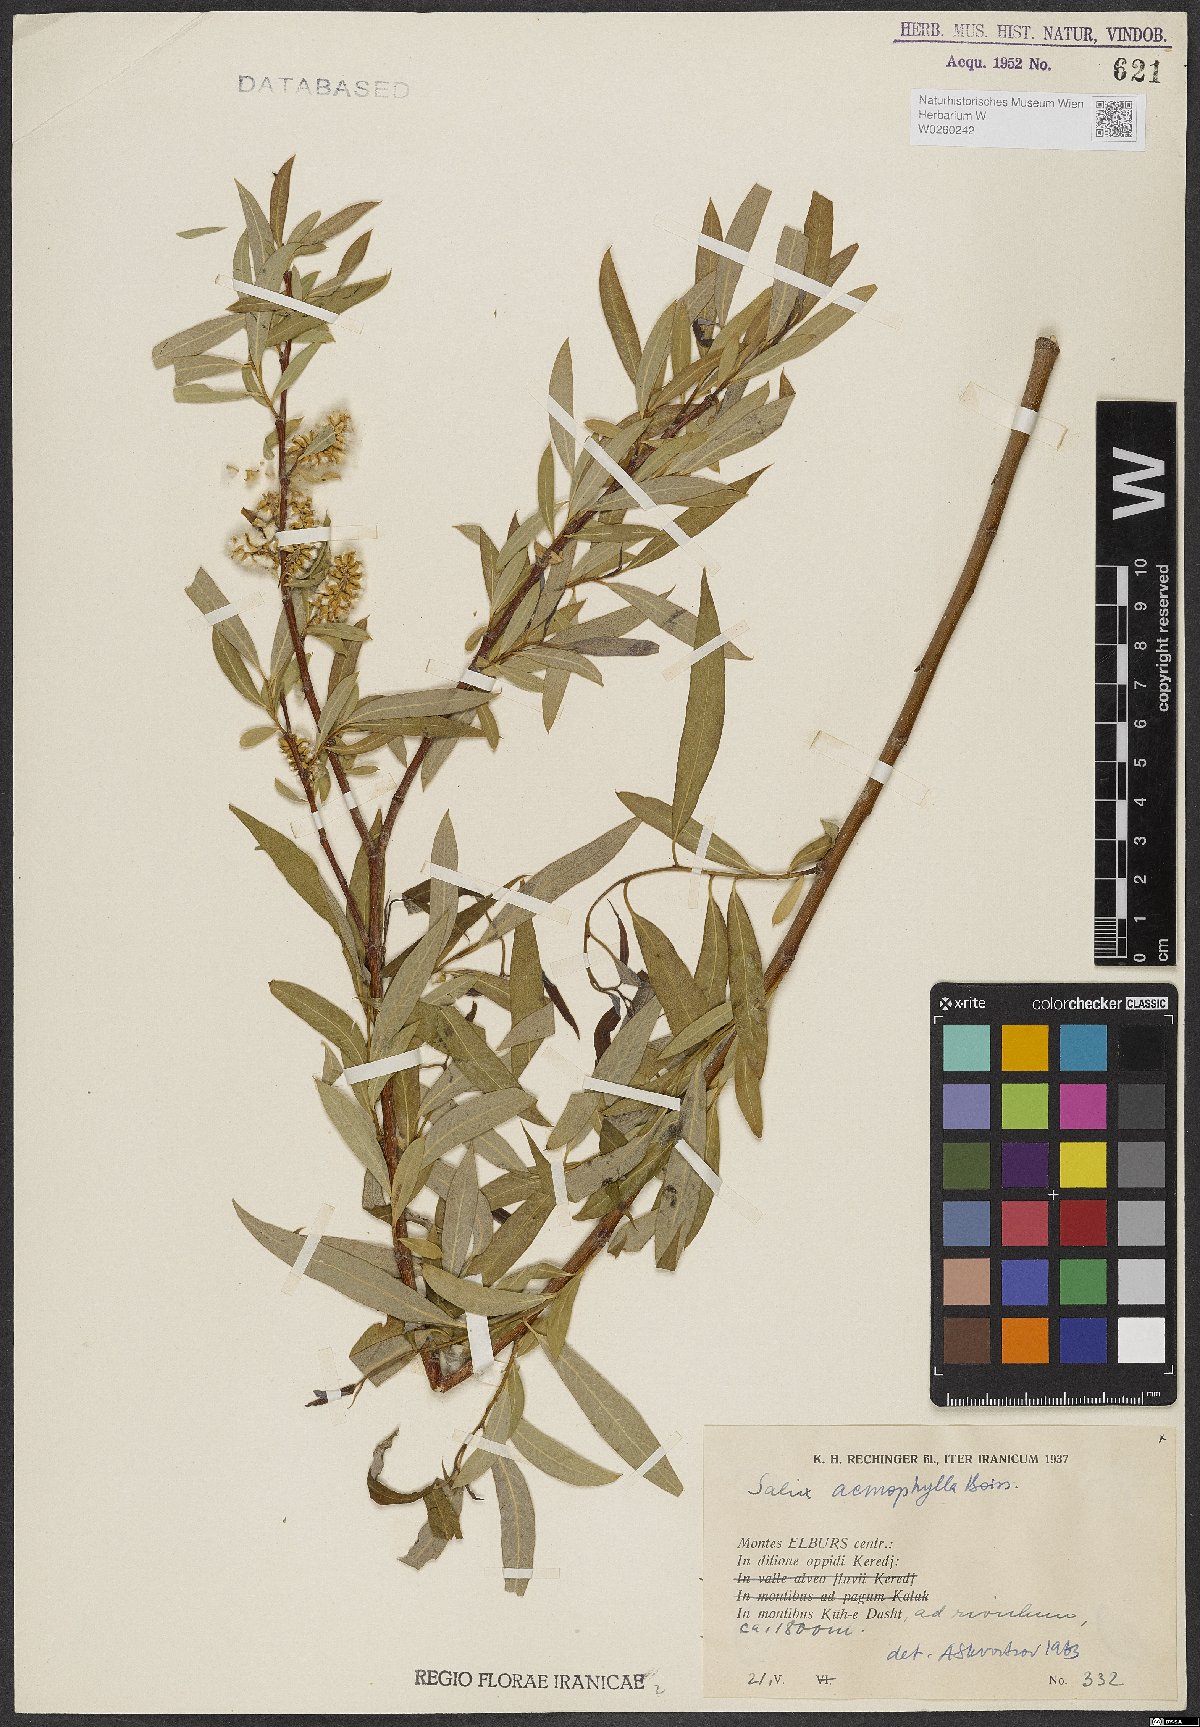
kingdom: Plantae
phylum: Tracheophyta
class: Magnoliopsida
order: Malpighiales
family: Salicaceae
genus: Salix
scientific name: Salix acmophylla
